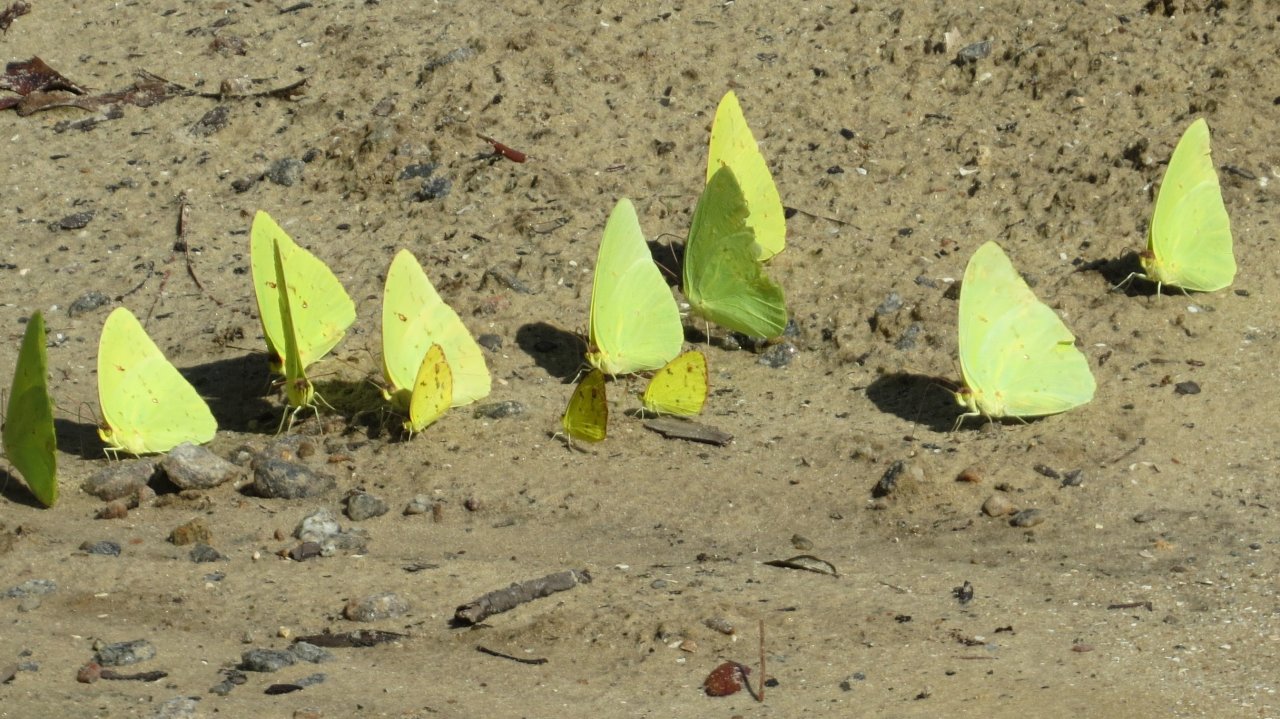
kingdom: Animalia
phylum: Arthropoda
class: Insecta
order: Lepidoptera
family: Pieridae
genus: Pyrisitia
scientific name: Pyrisitia lisa
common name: Little Yellow
